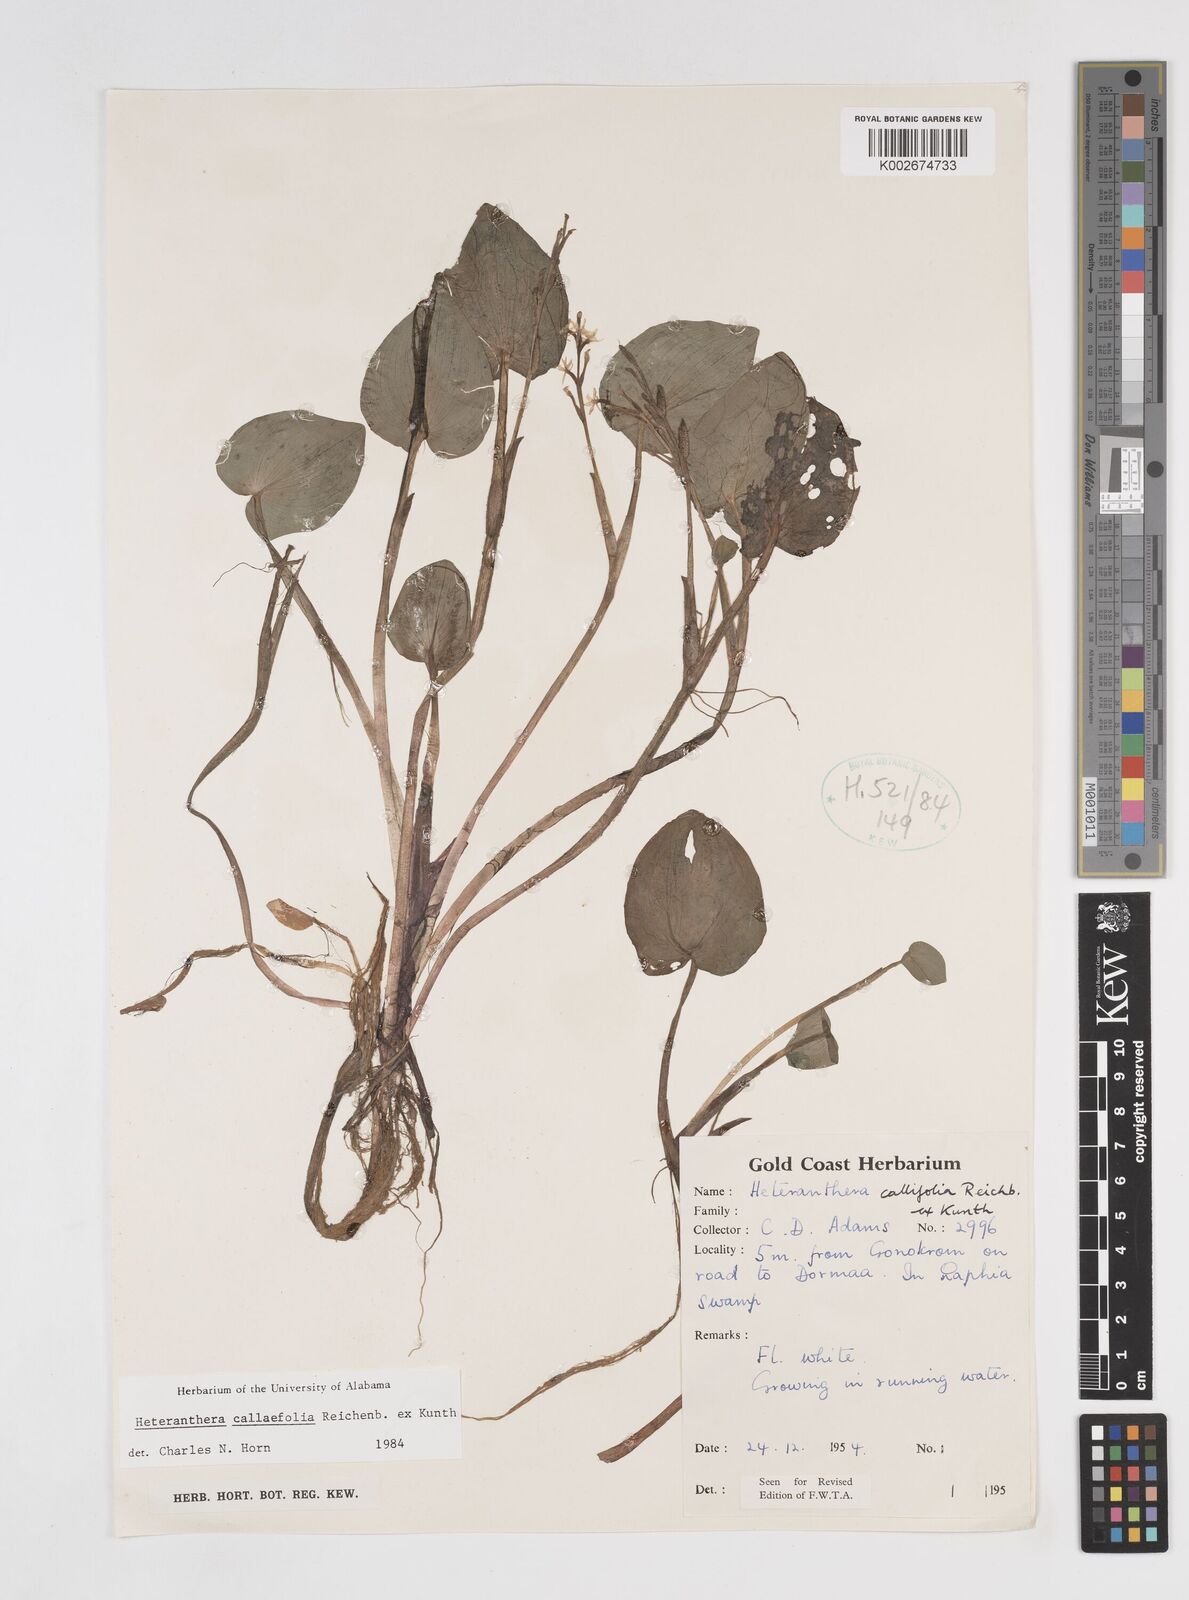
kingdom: Plantae
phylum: Tracheophyta
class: Liliopsida
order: Commelinales
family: Pontederiaceae
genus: Heteranthera
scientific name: Heteranthera callifolia
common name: Mud plantain
